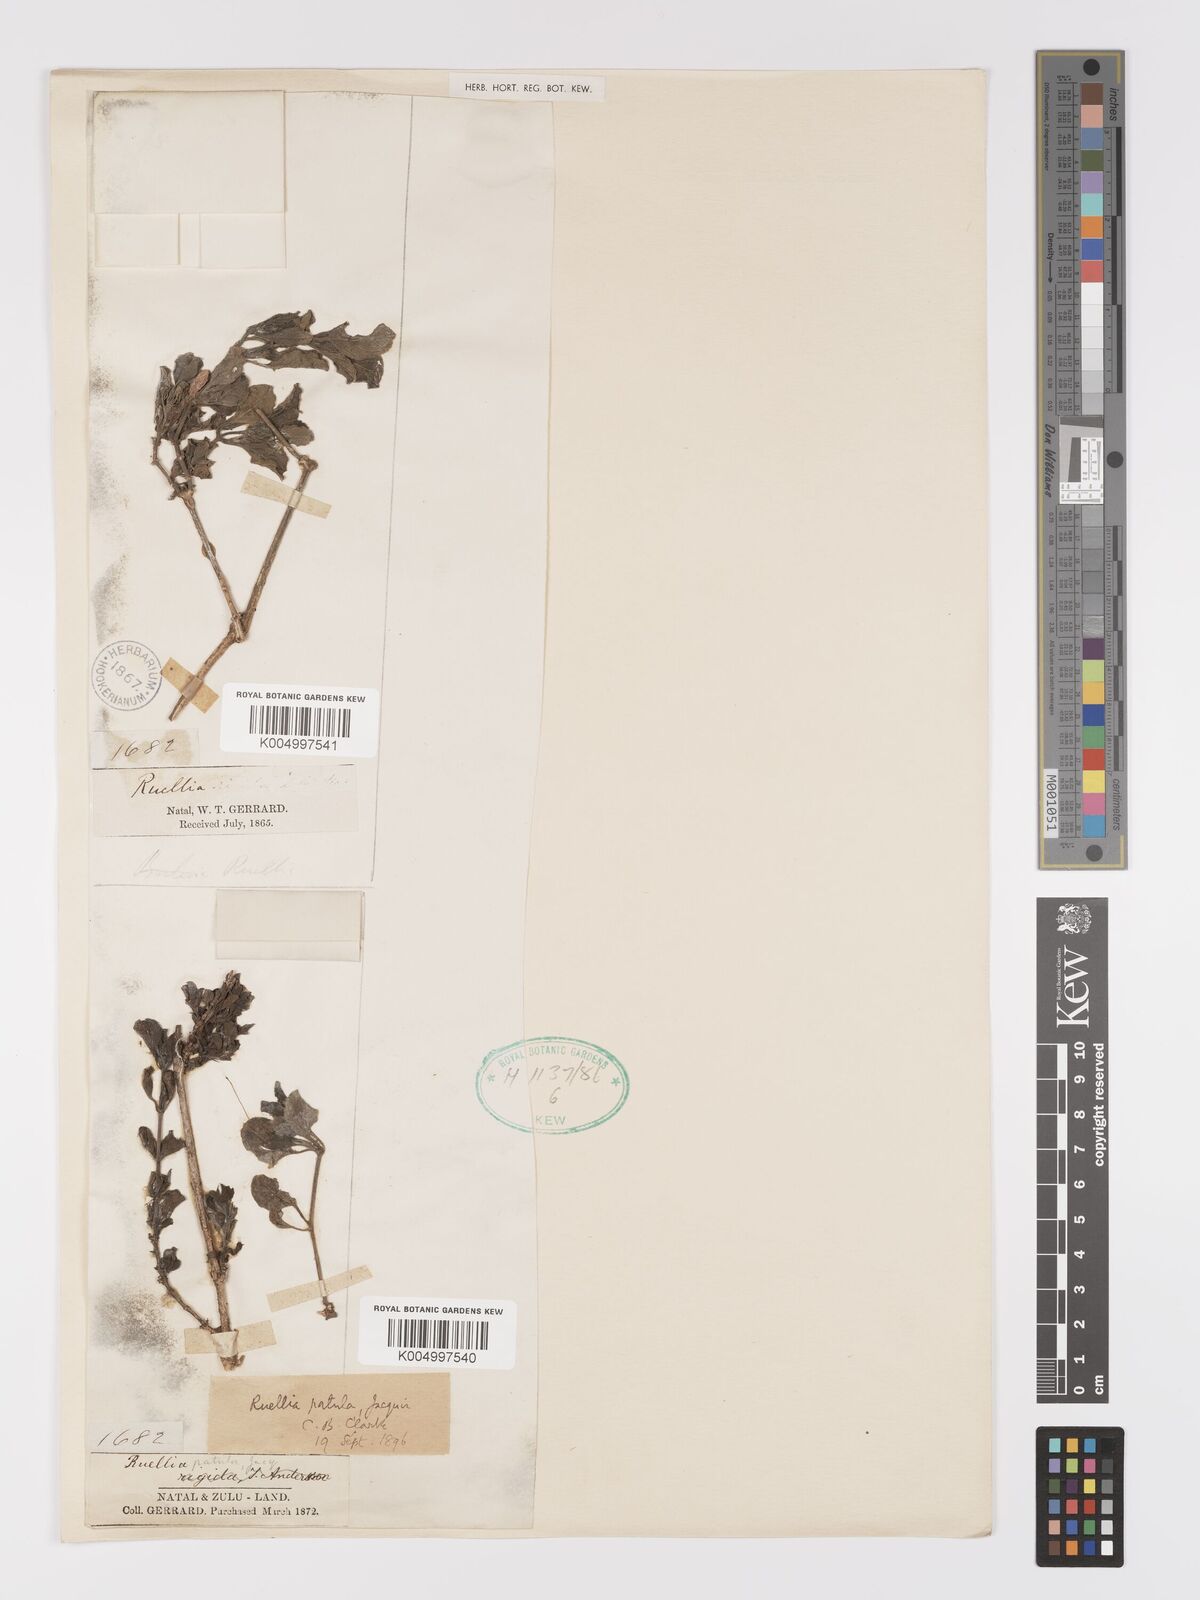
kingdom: Plantae
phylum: Tracheophyta
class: Magnoliopsida
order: Lamiales
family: Acanthaceae
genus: Ruellia
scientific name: Ruellia patula
